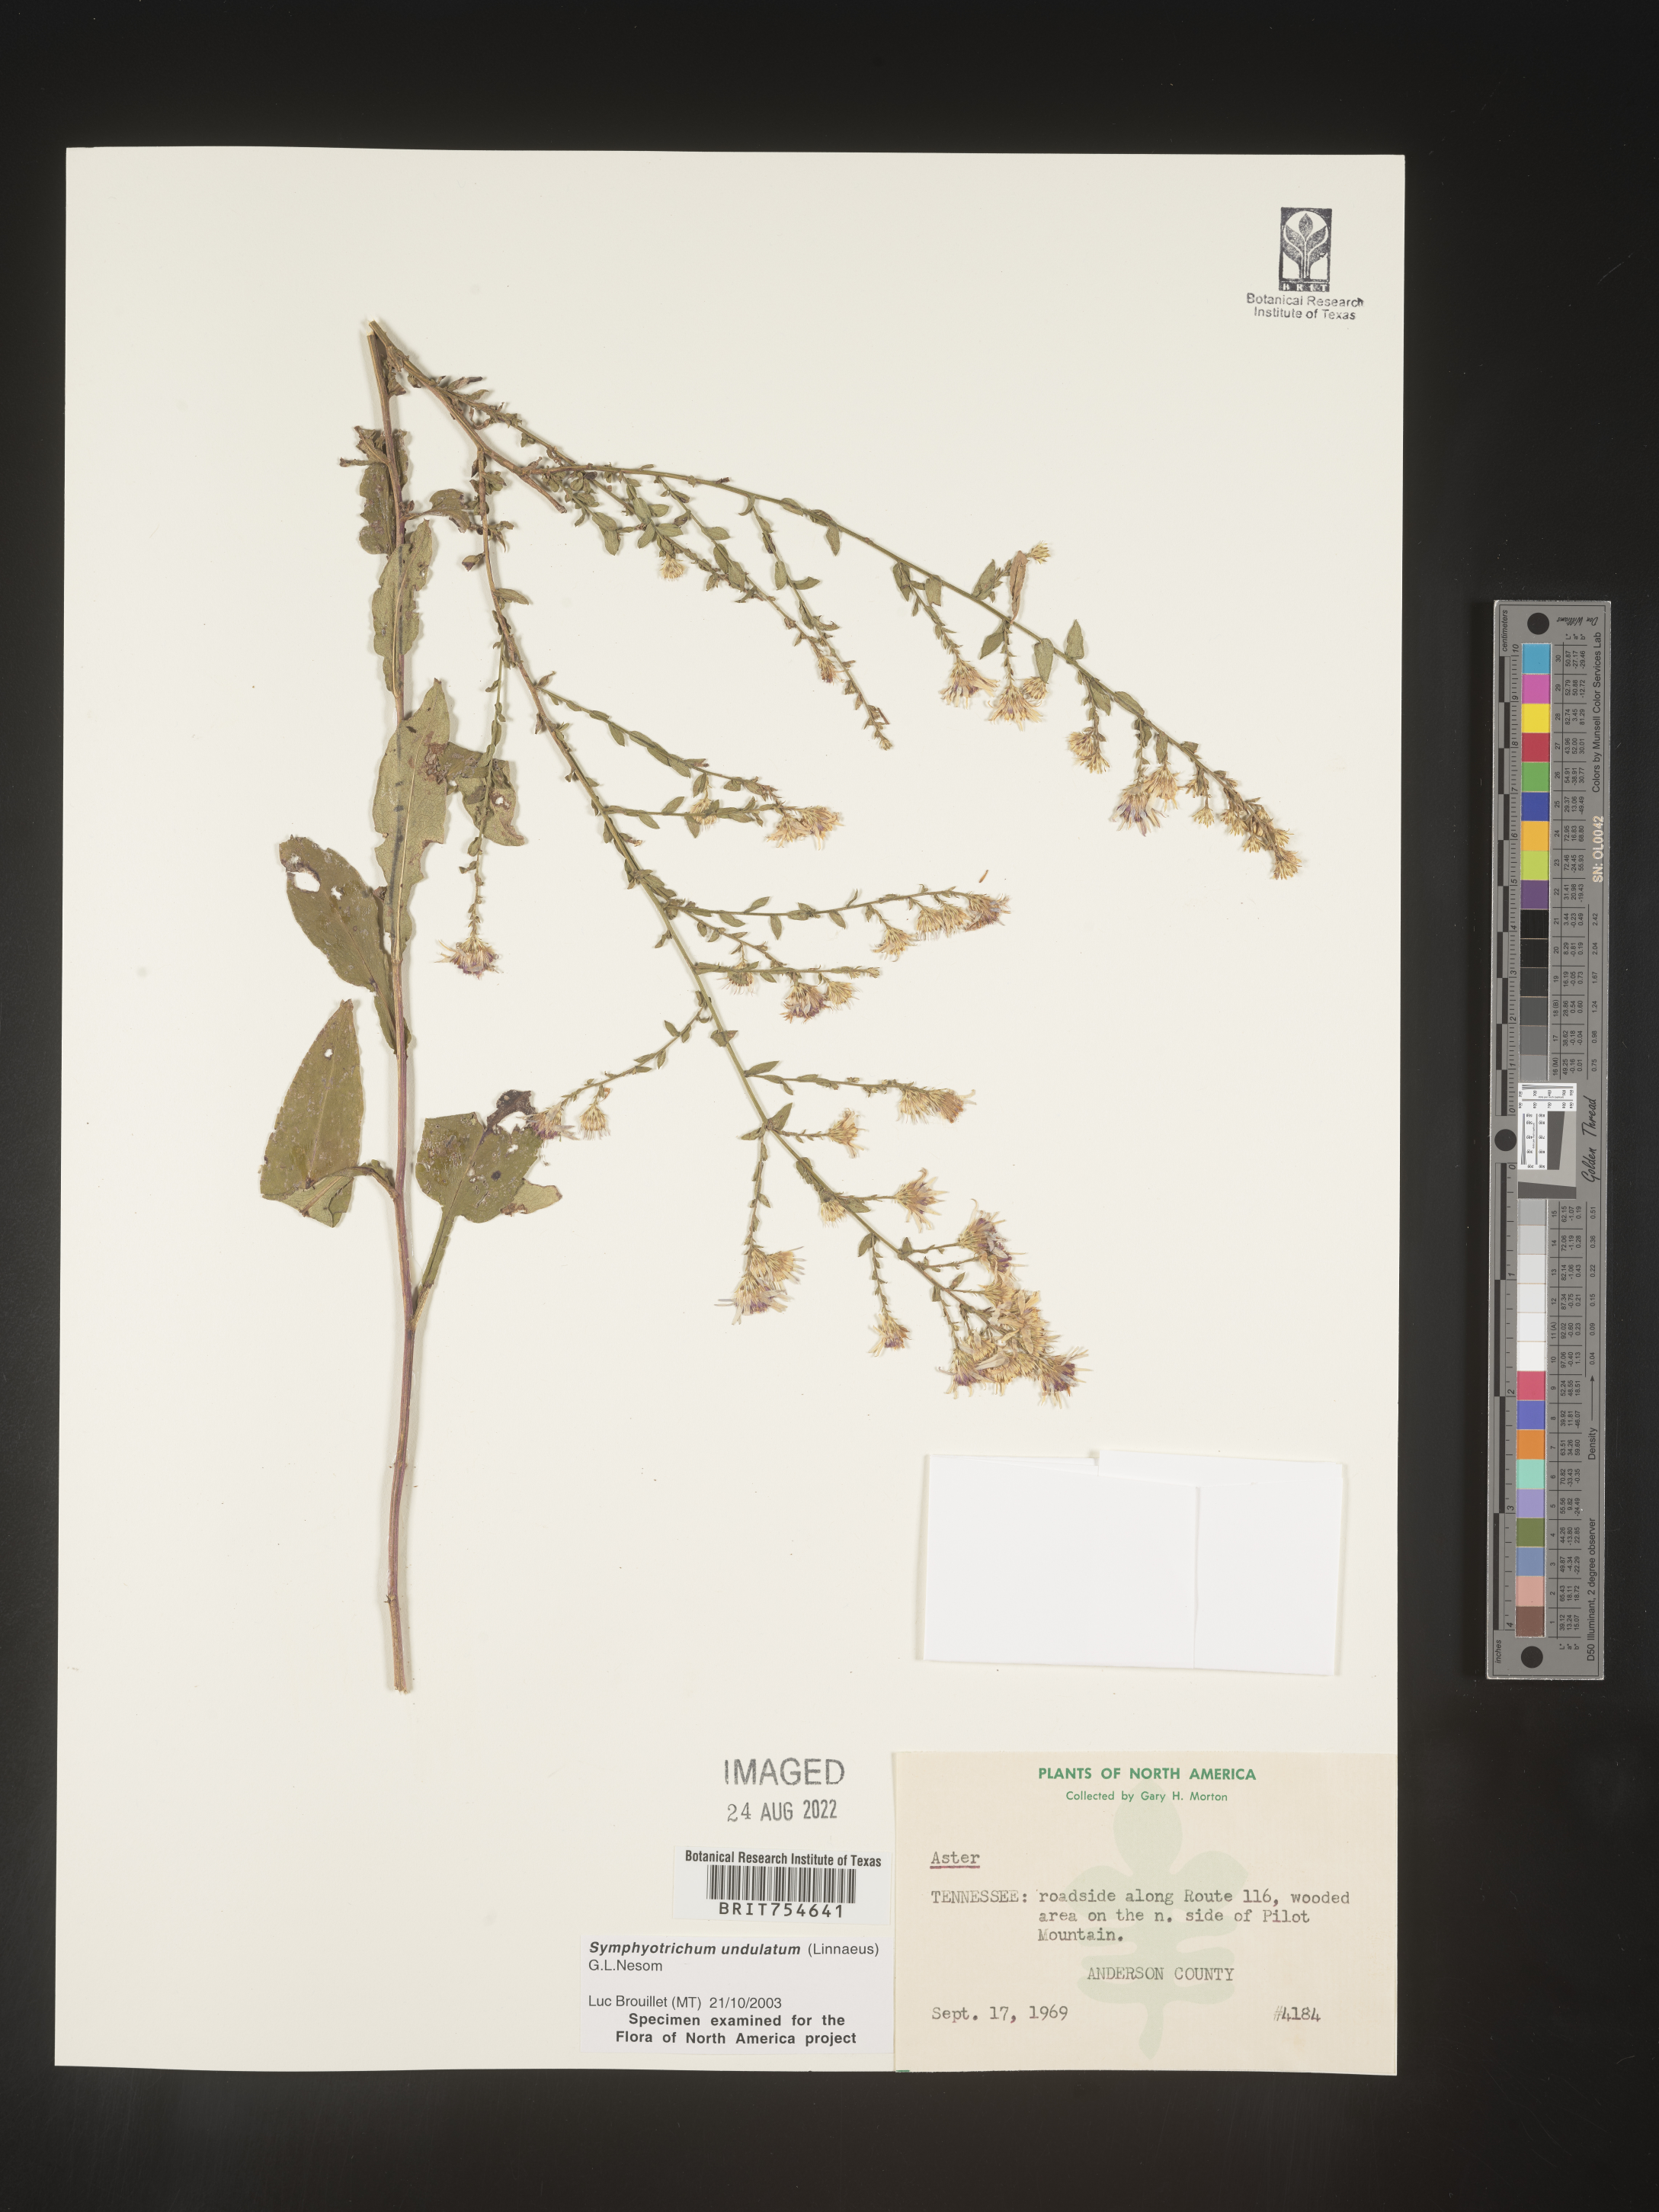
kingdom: Plantae
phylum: Tracheophyta
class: Magnoliopsida
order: Asterales
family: Asteraceae
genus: Symphyotrichum
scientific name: Symphyotrichum undulatum
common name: Clasping heart-leaf aster
